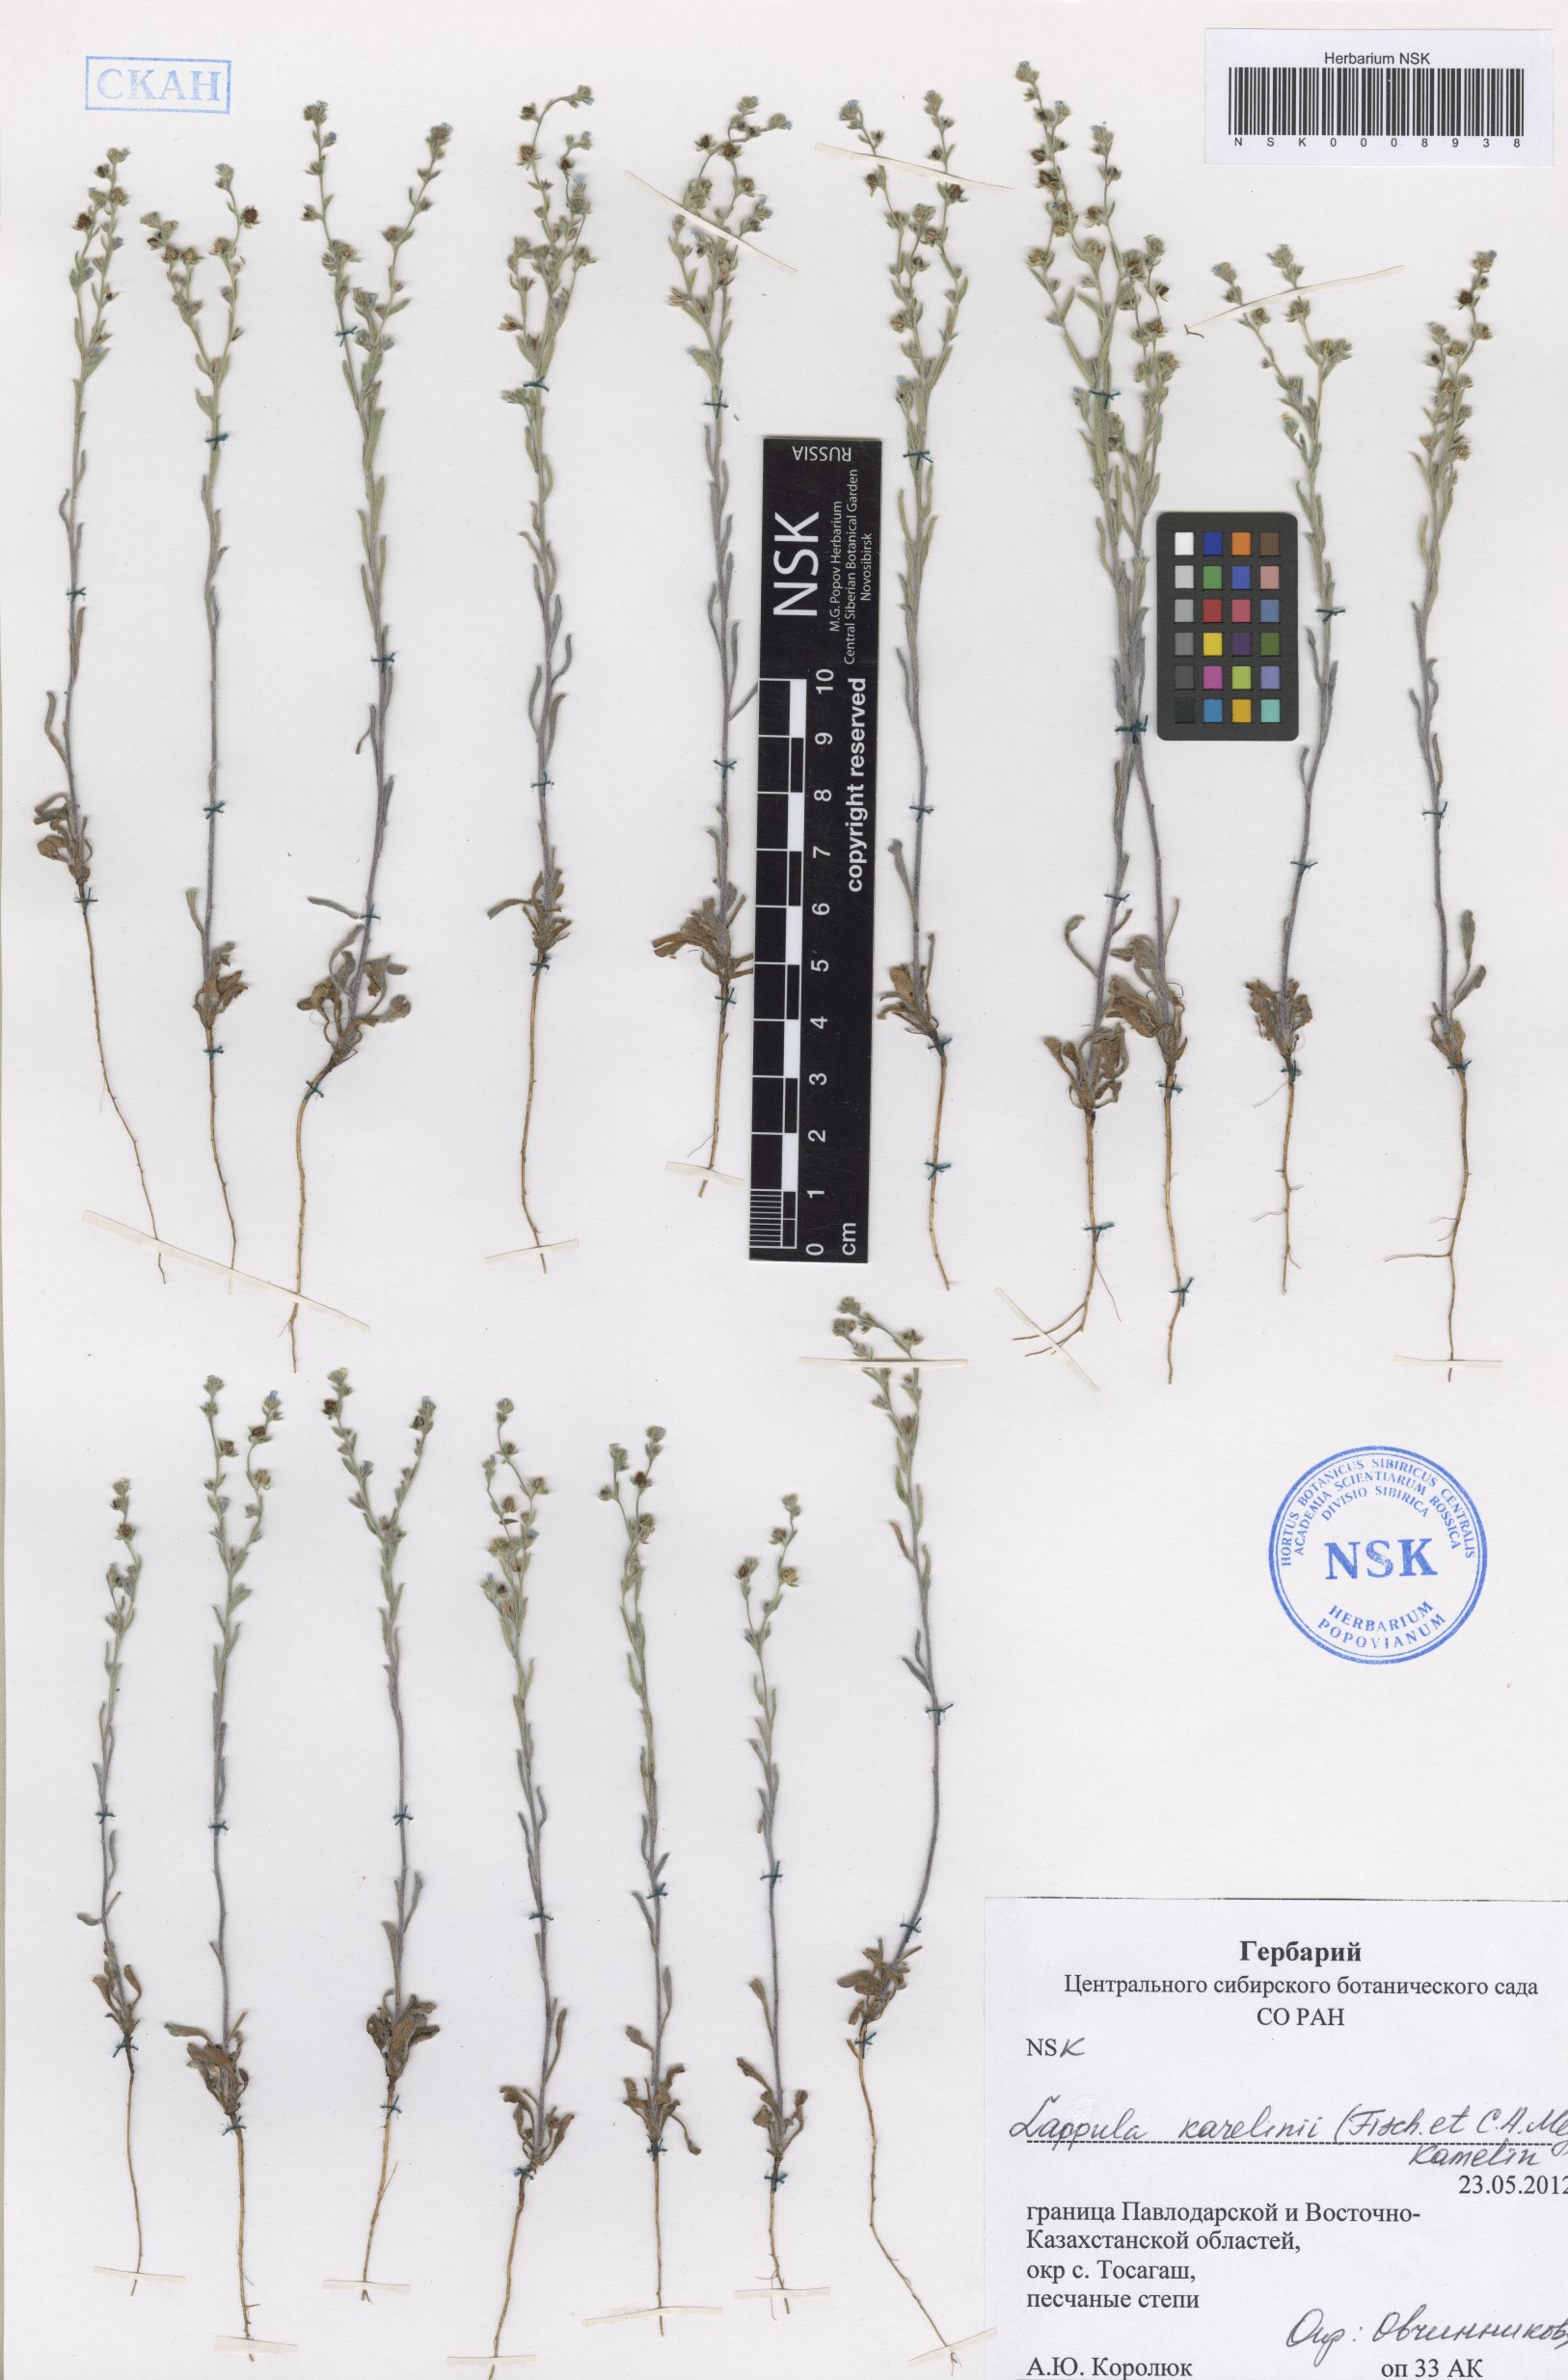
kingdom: Plantae
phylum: Tracheophyta
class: Magnoliopsida
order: Boraginales
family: Boraginaceae
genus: Lappula
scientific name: Lappula karelinii
